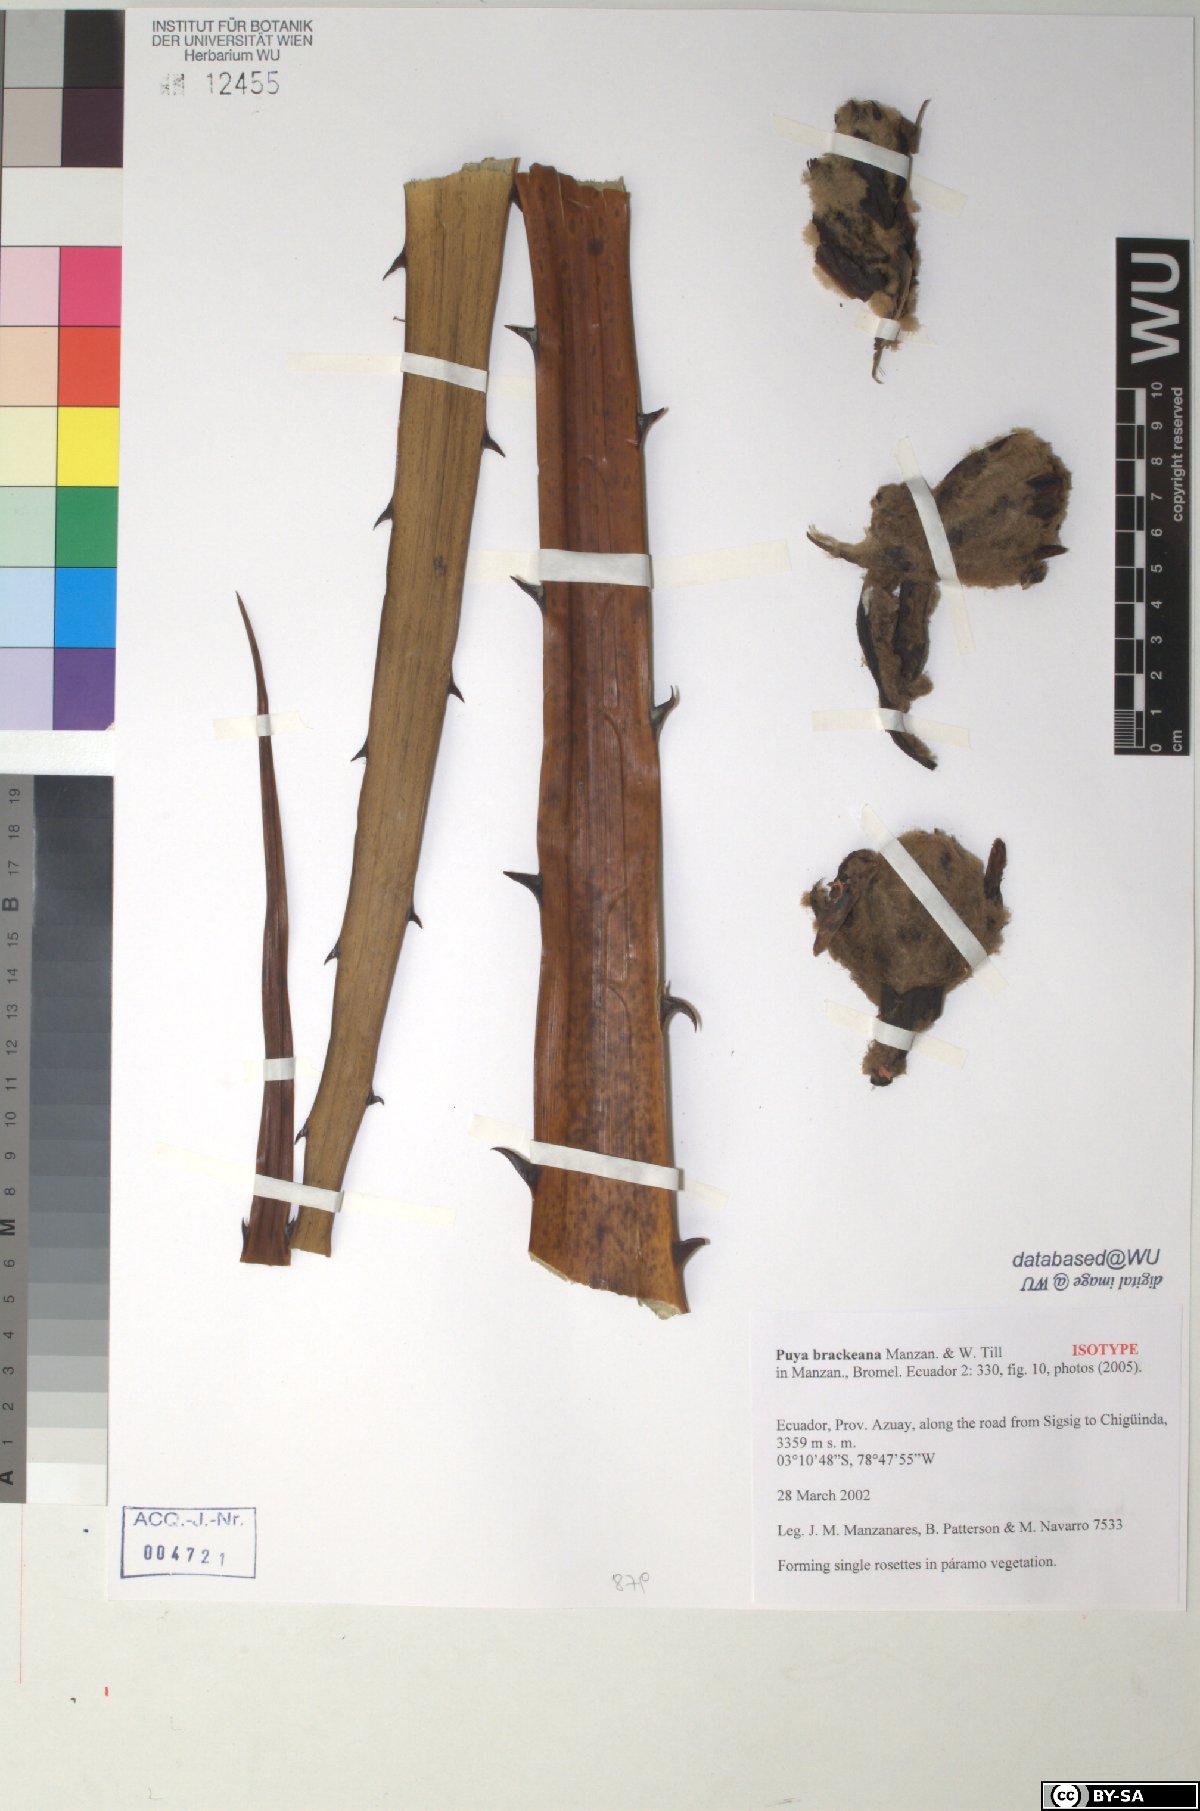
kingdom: Plantae
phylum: Tracheophyta
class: Liliopsida
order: Poales
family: Bromeliaceae
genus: Puya
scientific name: Puya brackeana
